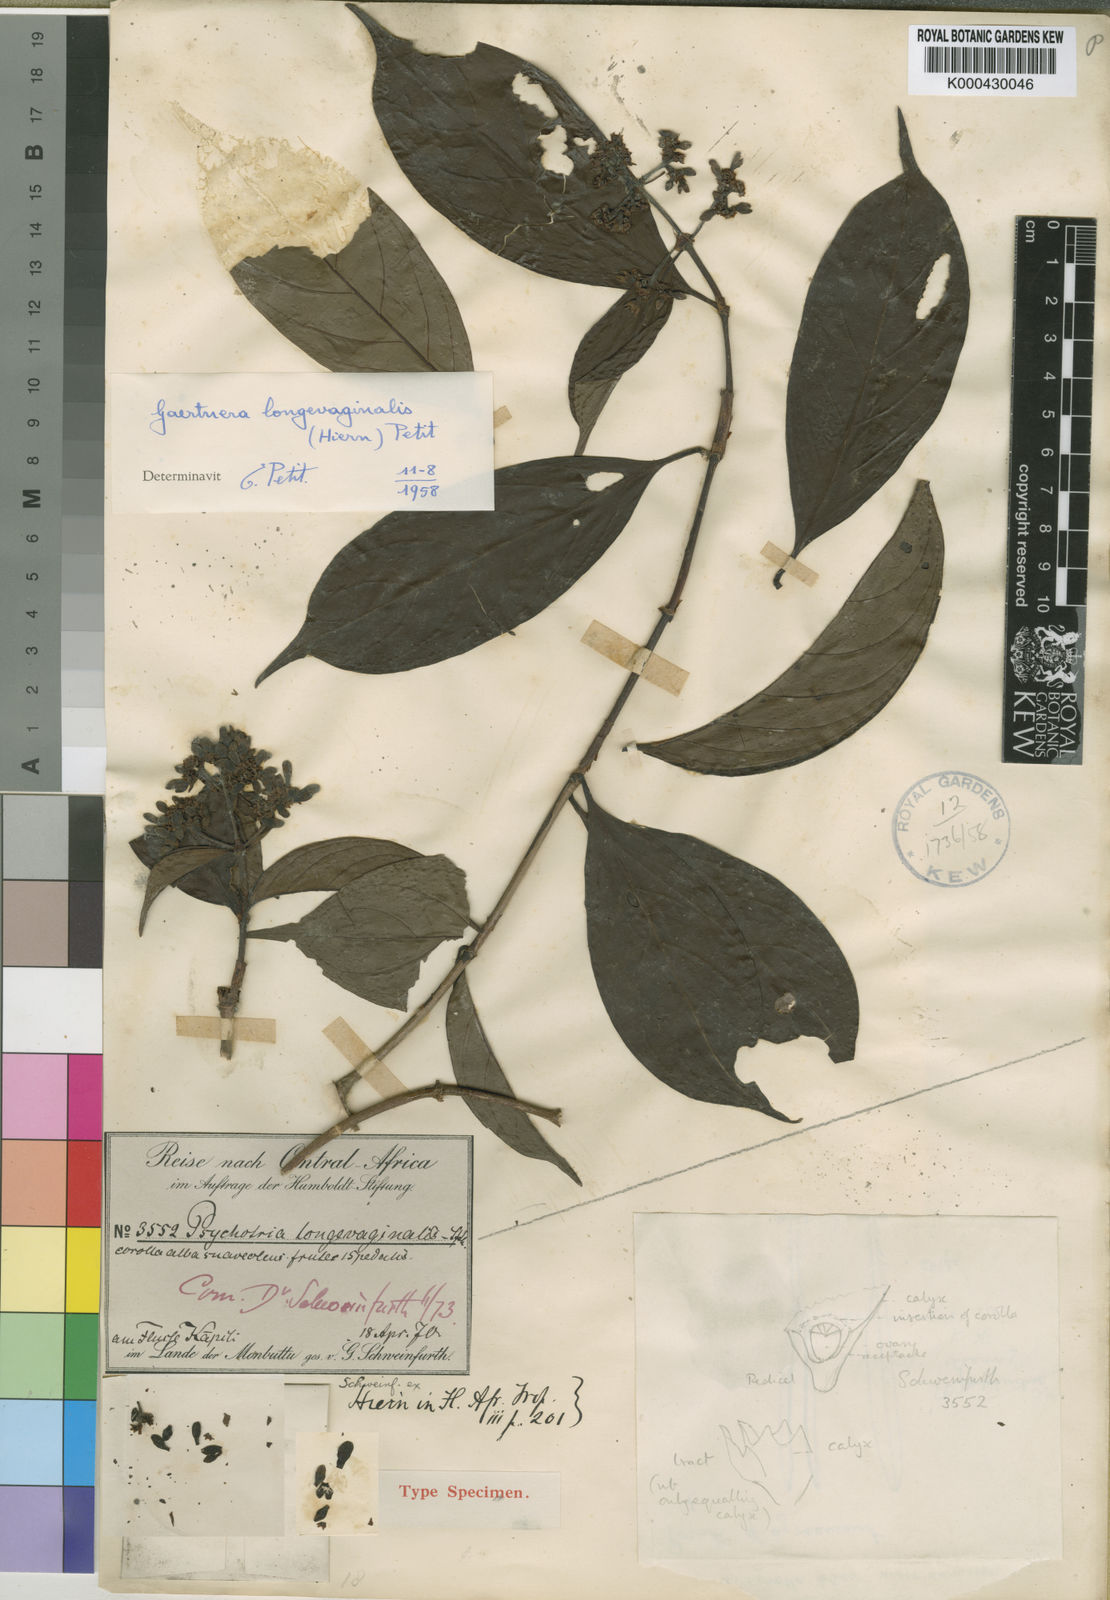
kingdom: Plantae
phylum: Tracheophyta
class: Magnoliopsida
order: Gentianales
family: Rubiaceae
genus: Gaertnera
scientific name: Gaertnera
